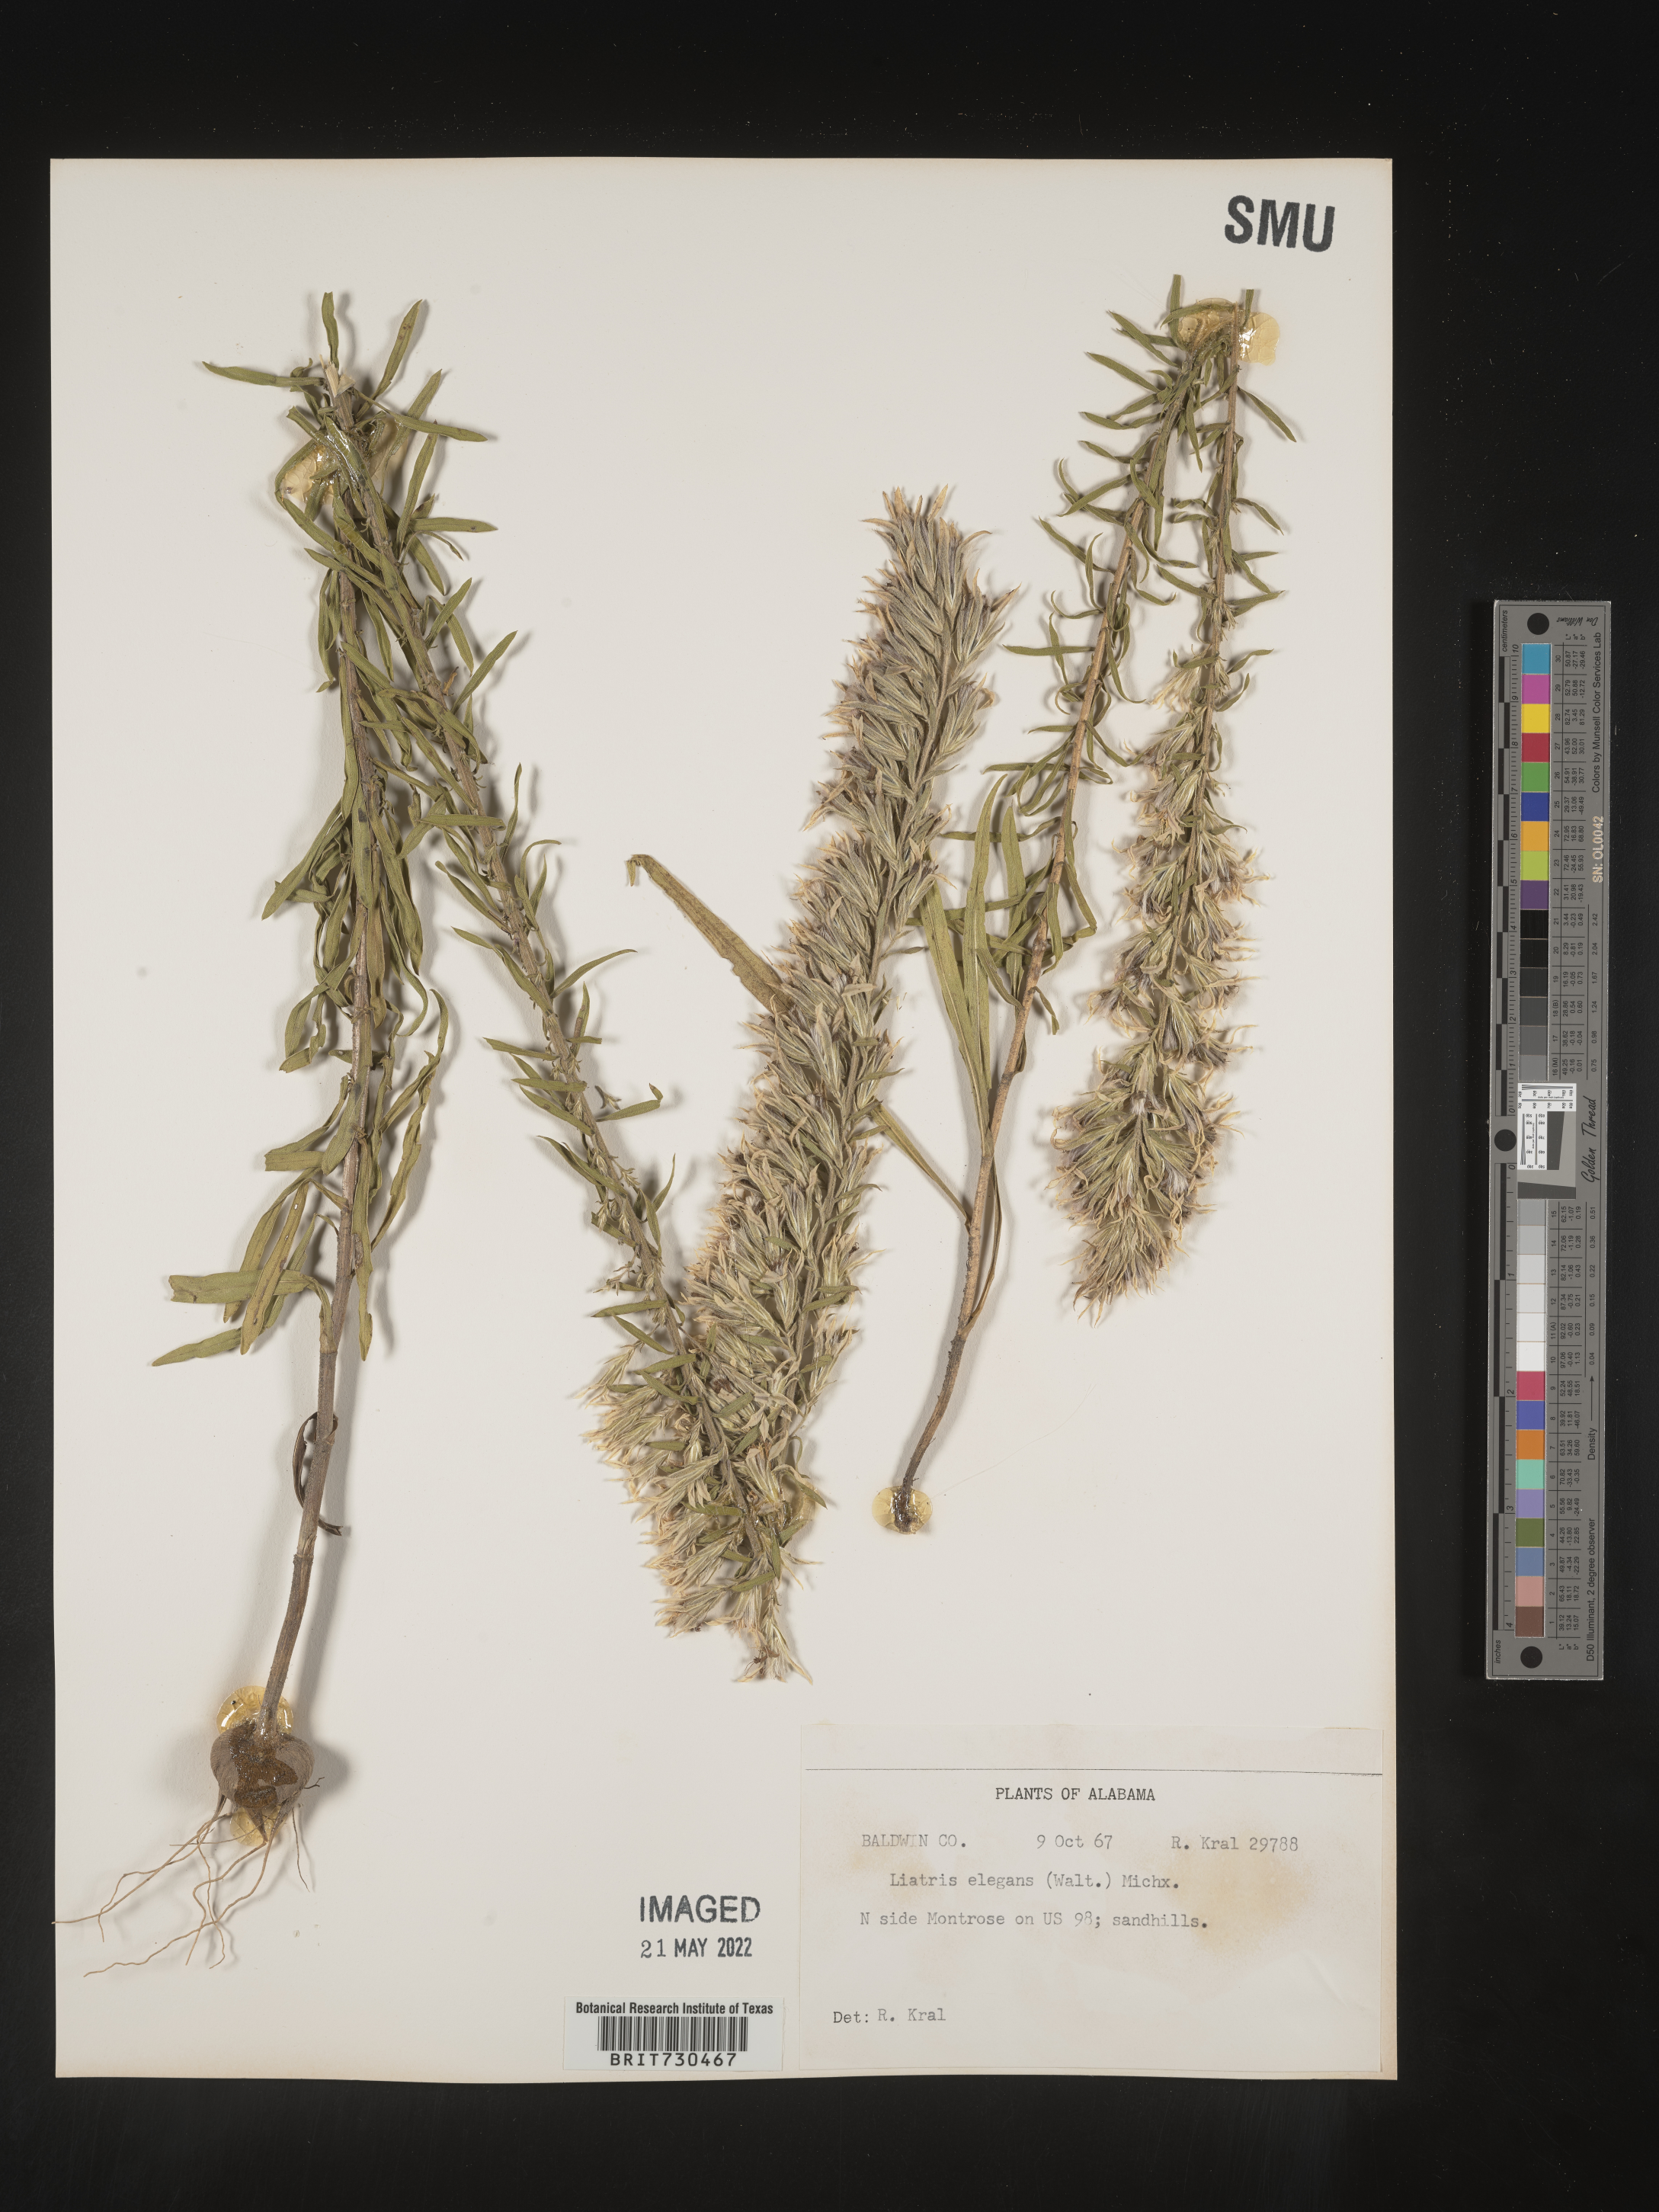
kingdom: Plantae
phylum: Tracheophyta
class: Magnoliopsida
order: Asterales
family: Asteraceae
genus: Liatris
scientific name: Liatris elegans
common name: Pinkscale gayfeather
